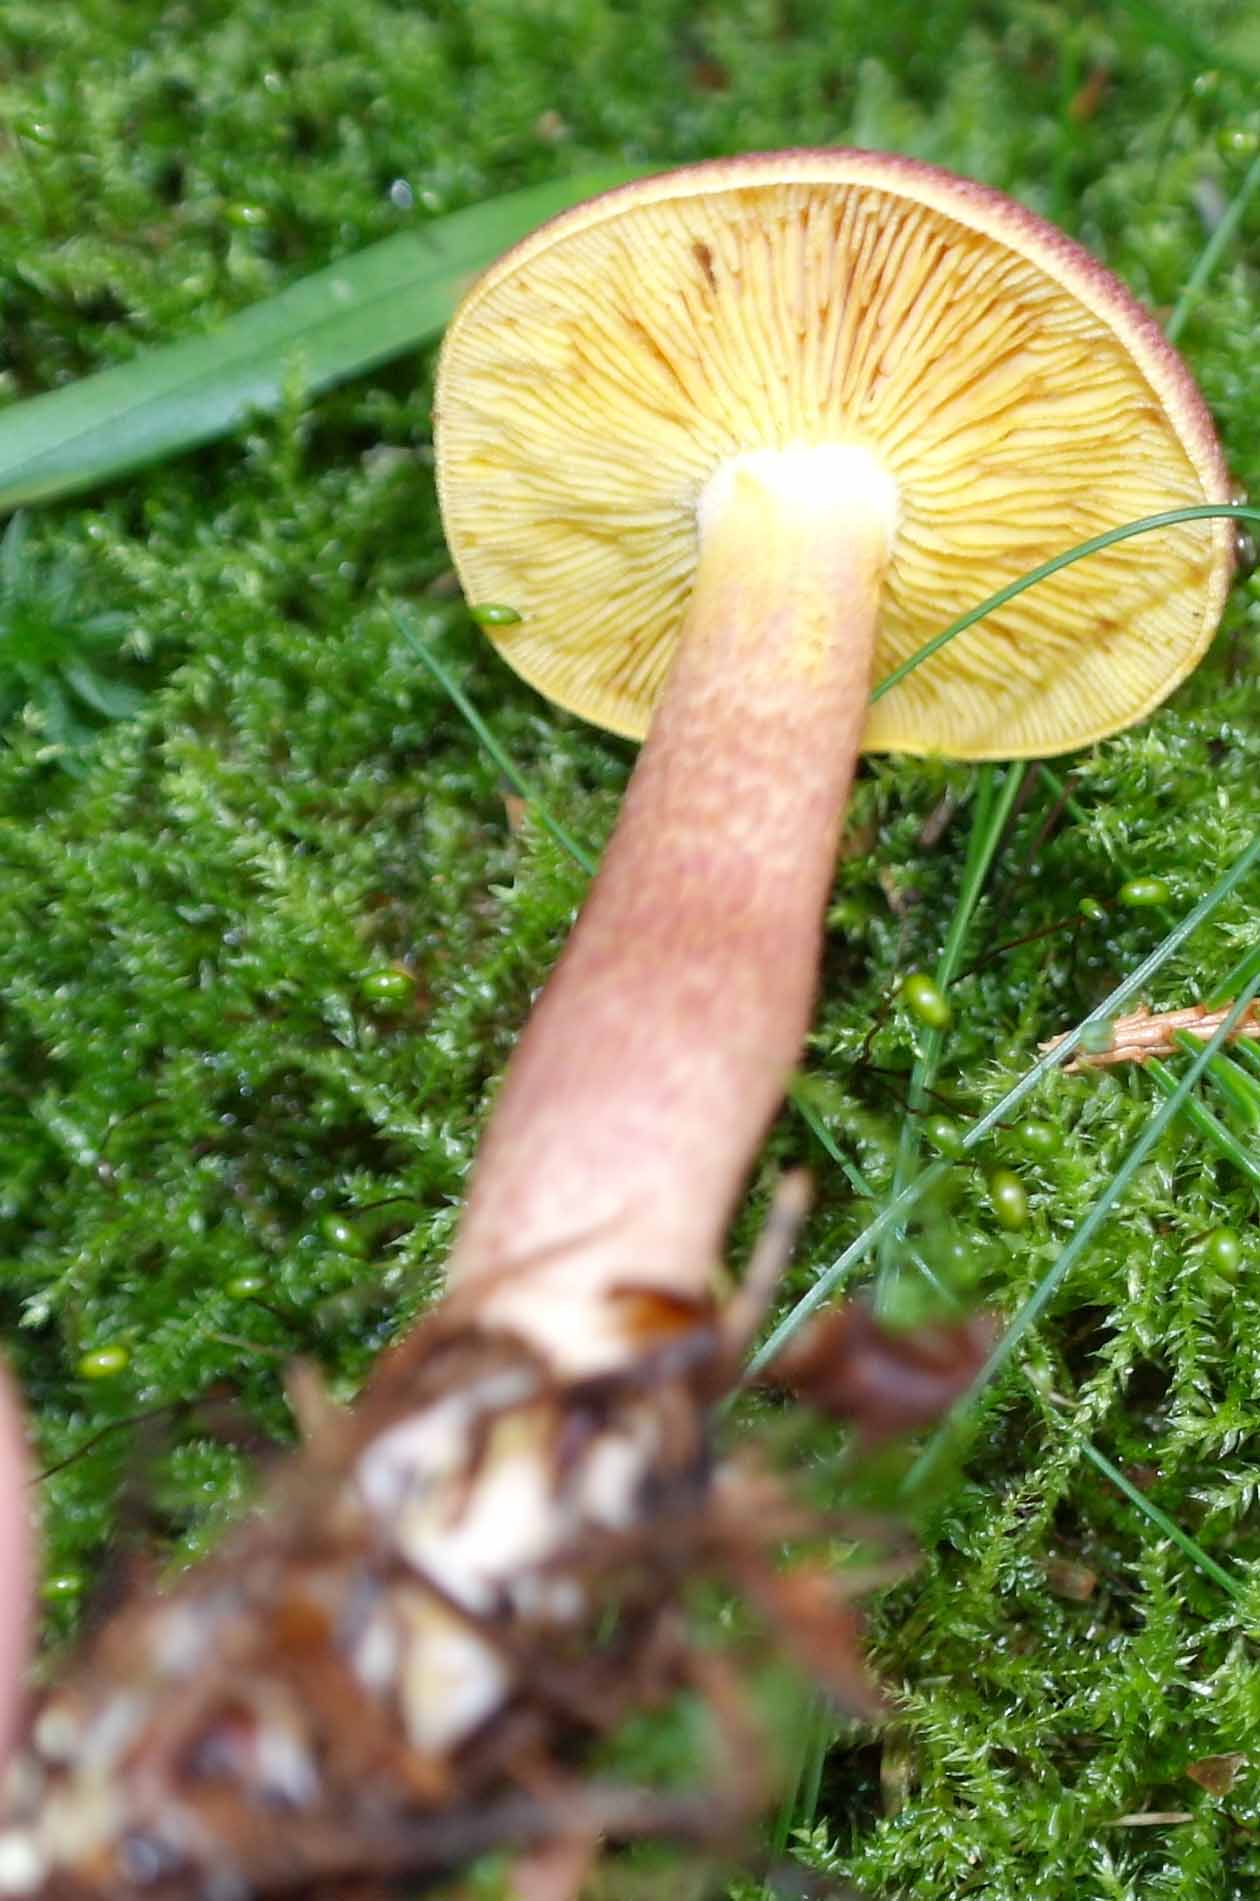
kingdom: Fungi
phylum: Basidiomycota
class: Agaricomycetes
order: Agaricales
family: Tricholomataceae
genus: Tricholomopsis
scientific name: Tricholomopsis rutilans
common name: purpur-væbnerhat
